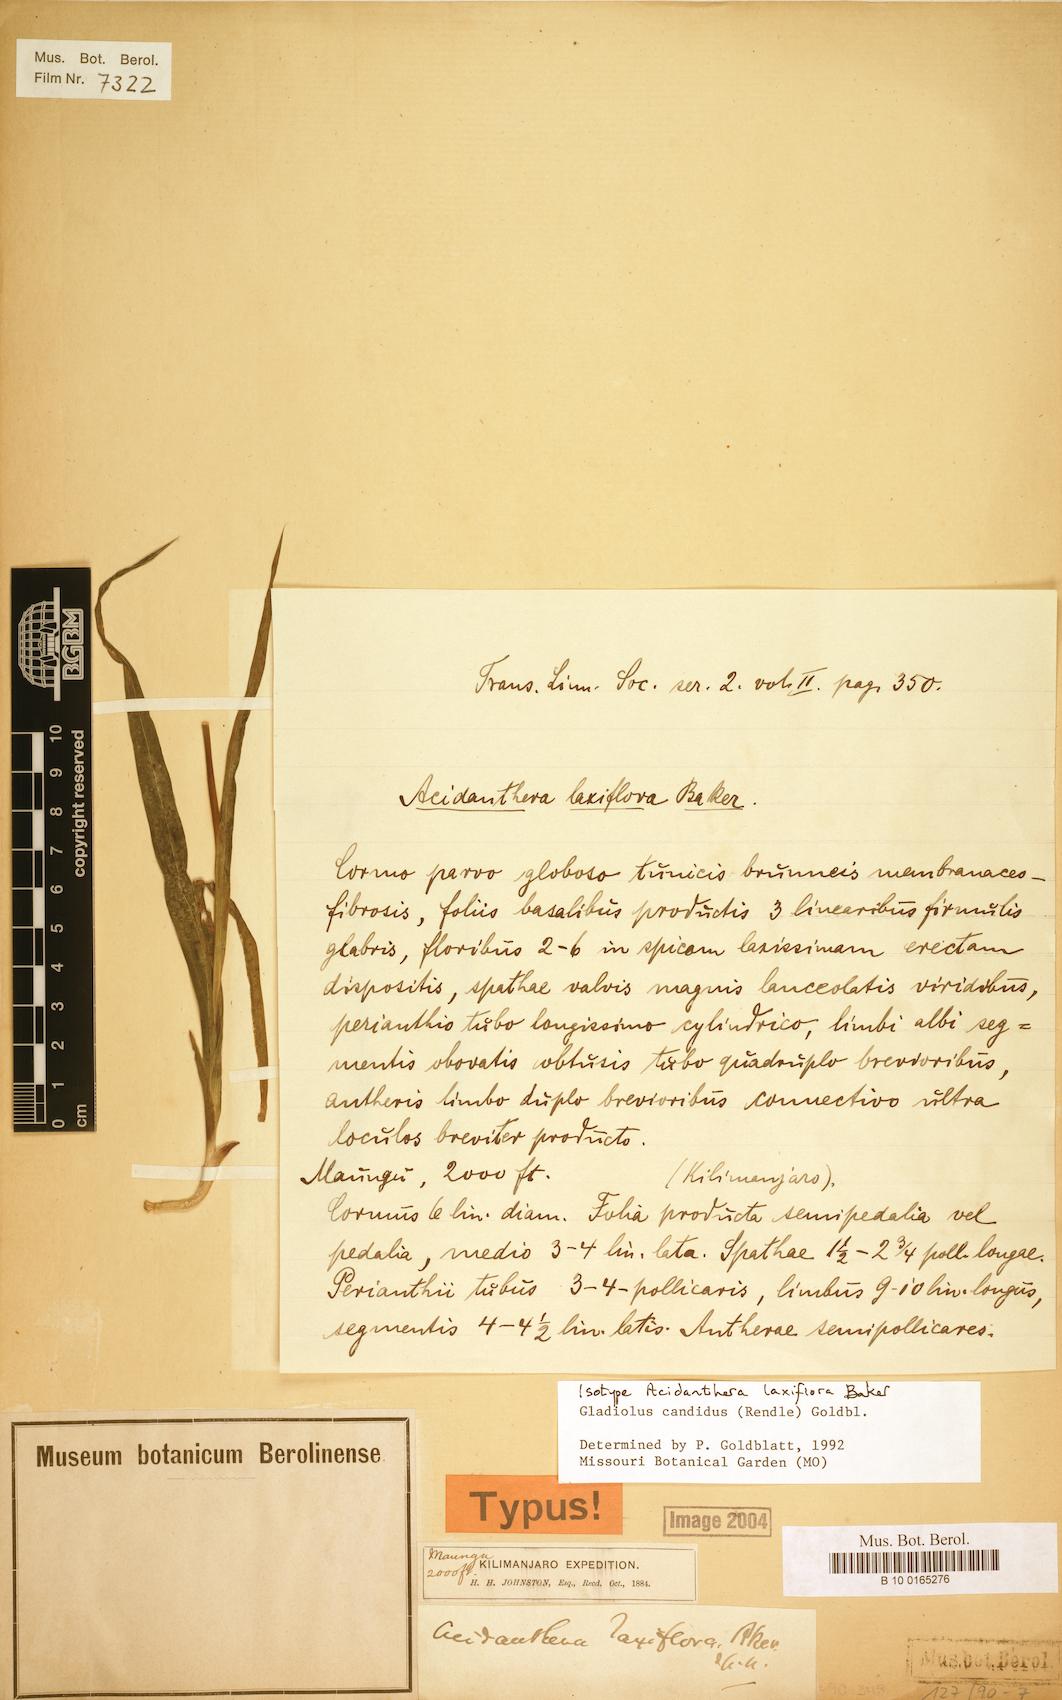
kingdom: Plantae
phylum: Tracheophyta
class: Liliopsida
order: Asparagales
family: Iridaceae
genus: Gladiolus
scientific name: Gladiolus candidus
